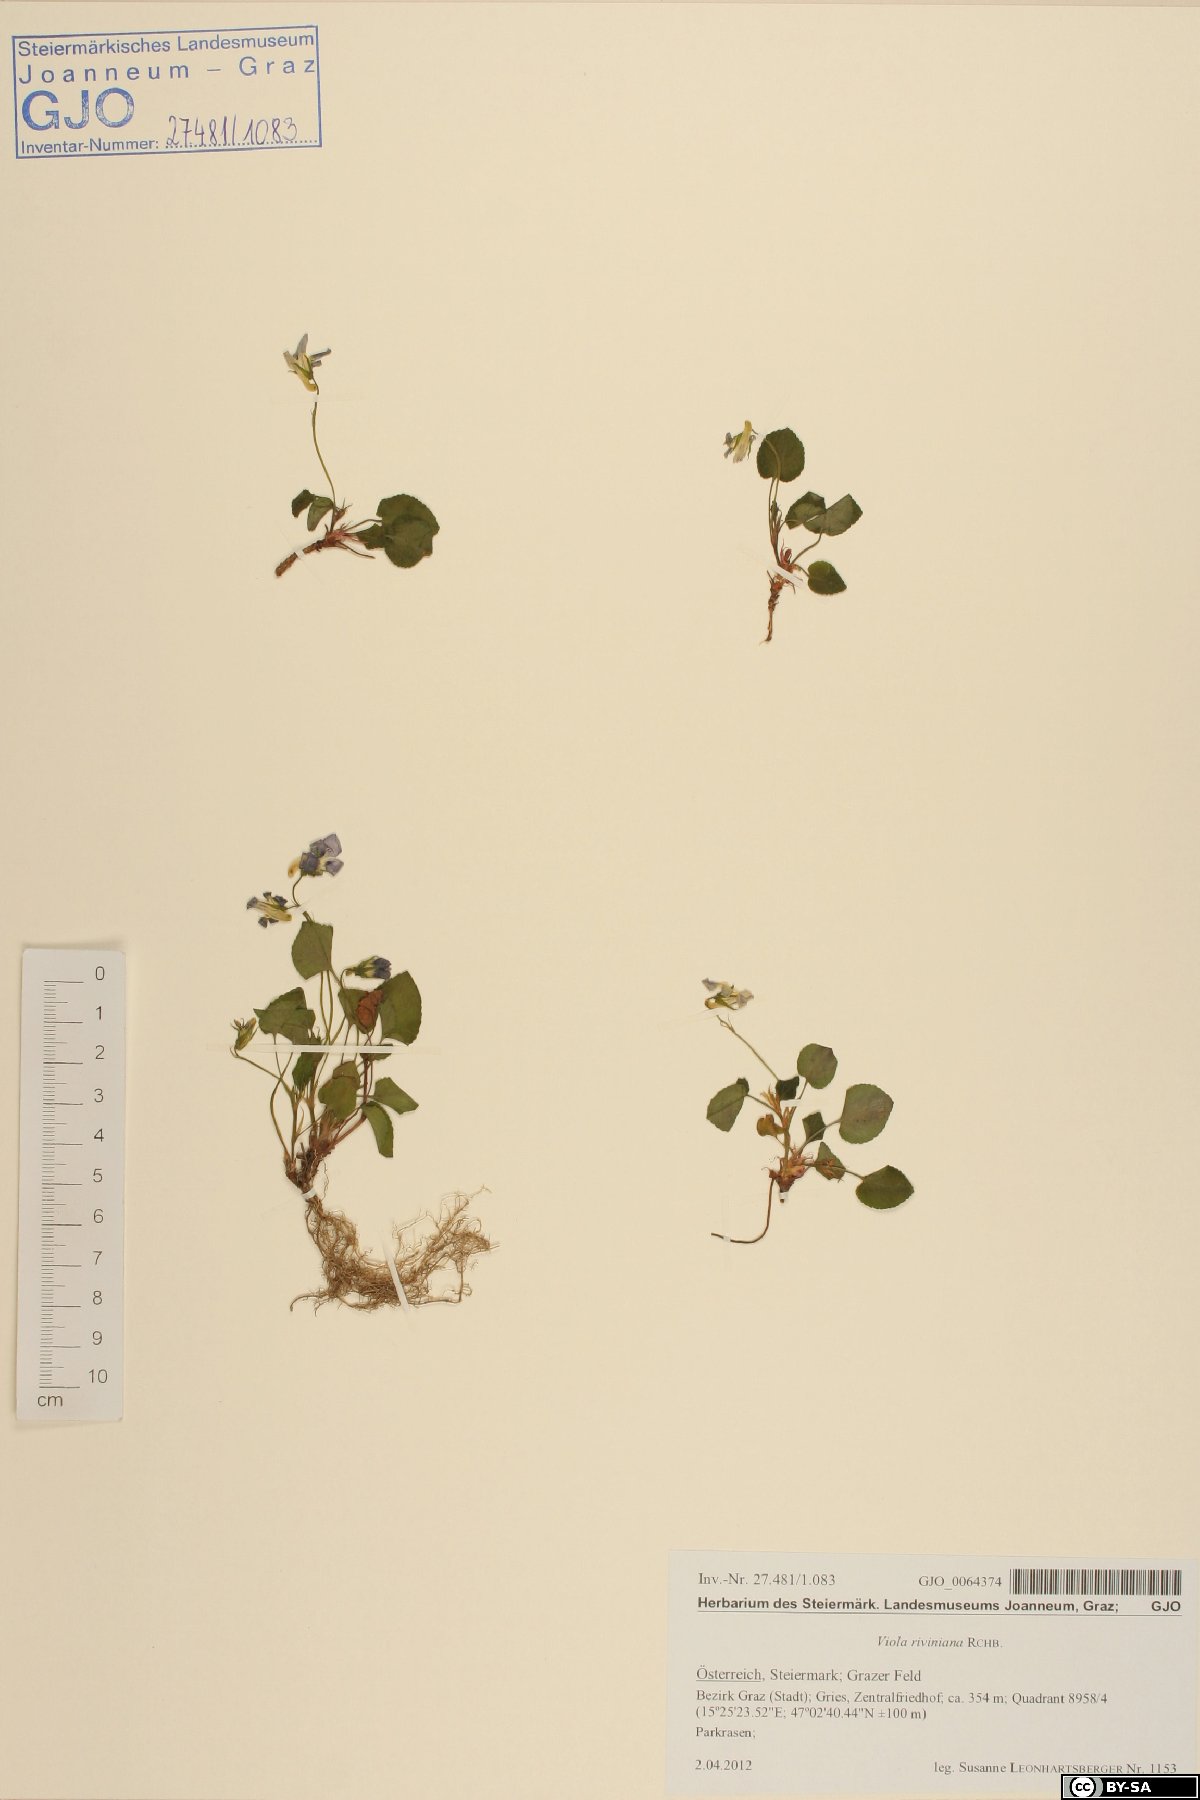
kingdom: Plantae
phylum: Tracheophyta
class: Magnoliopsida
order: Malpighiales
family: Violaceae
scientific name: Violaceae
